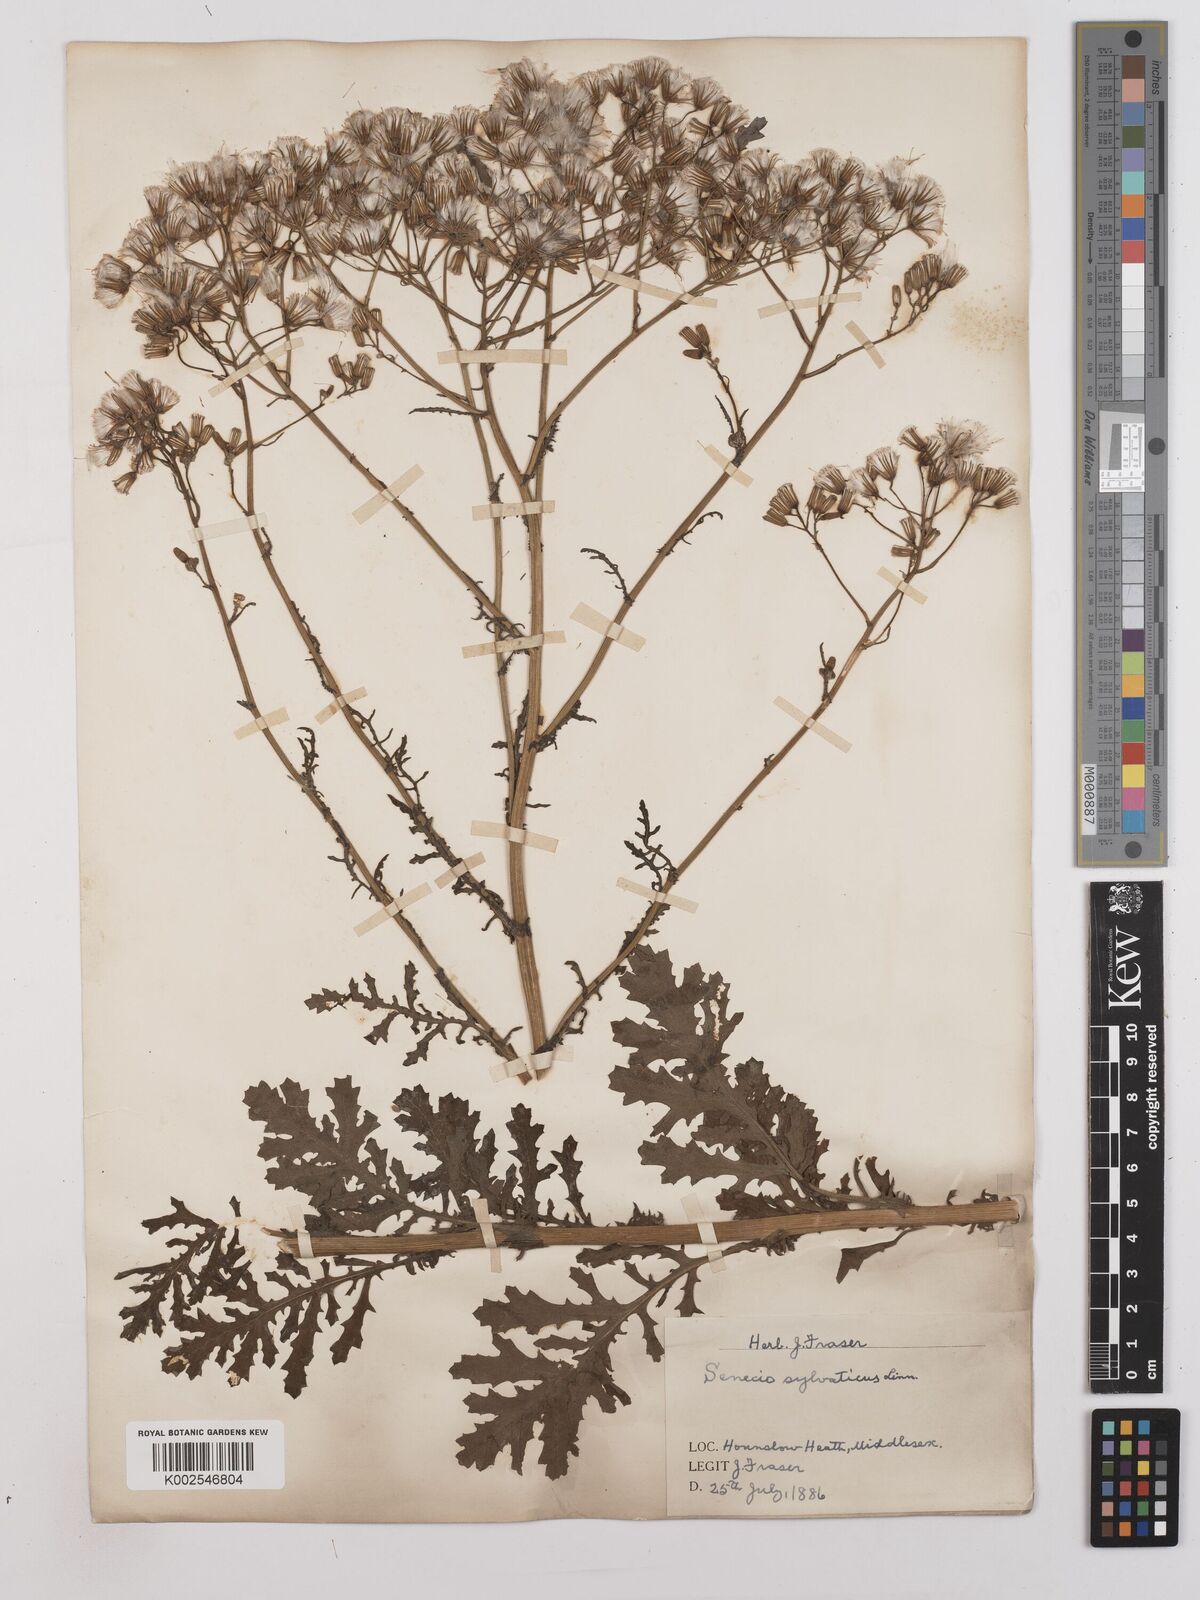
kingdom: Plantae
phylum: Tracheophyta
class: Magnoliopsida
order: Asterales
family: Asteraceae
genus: Senecio
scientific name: Senecio sylvaticus
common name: Woodland ragwort
